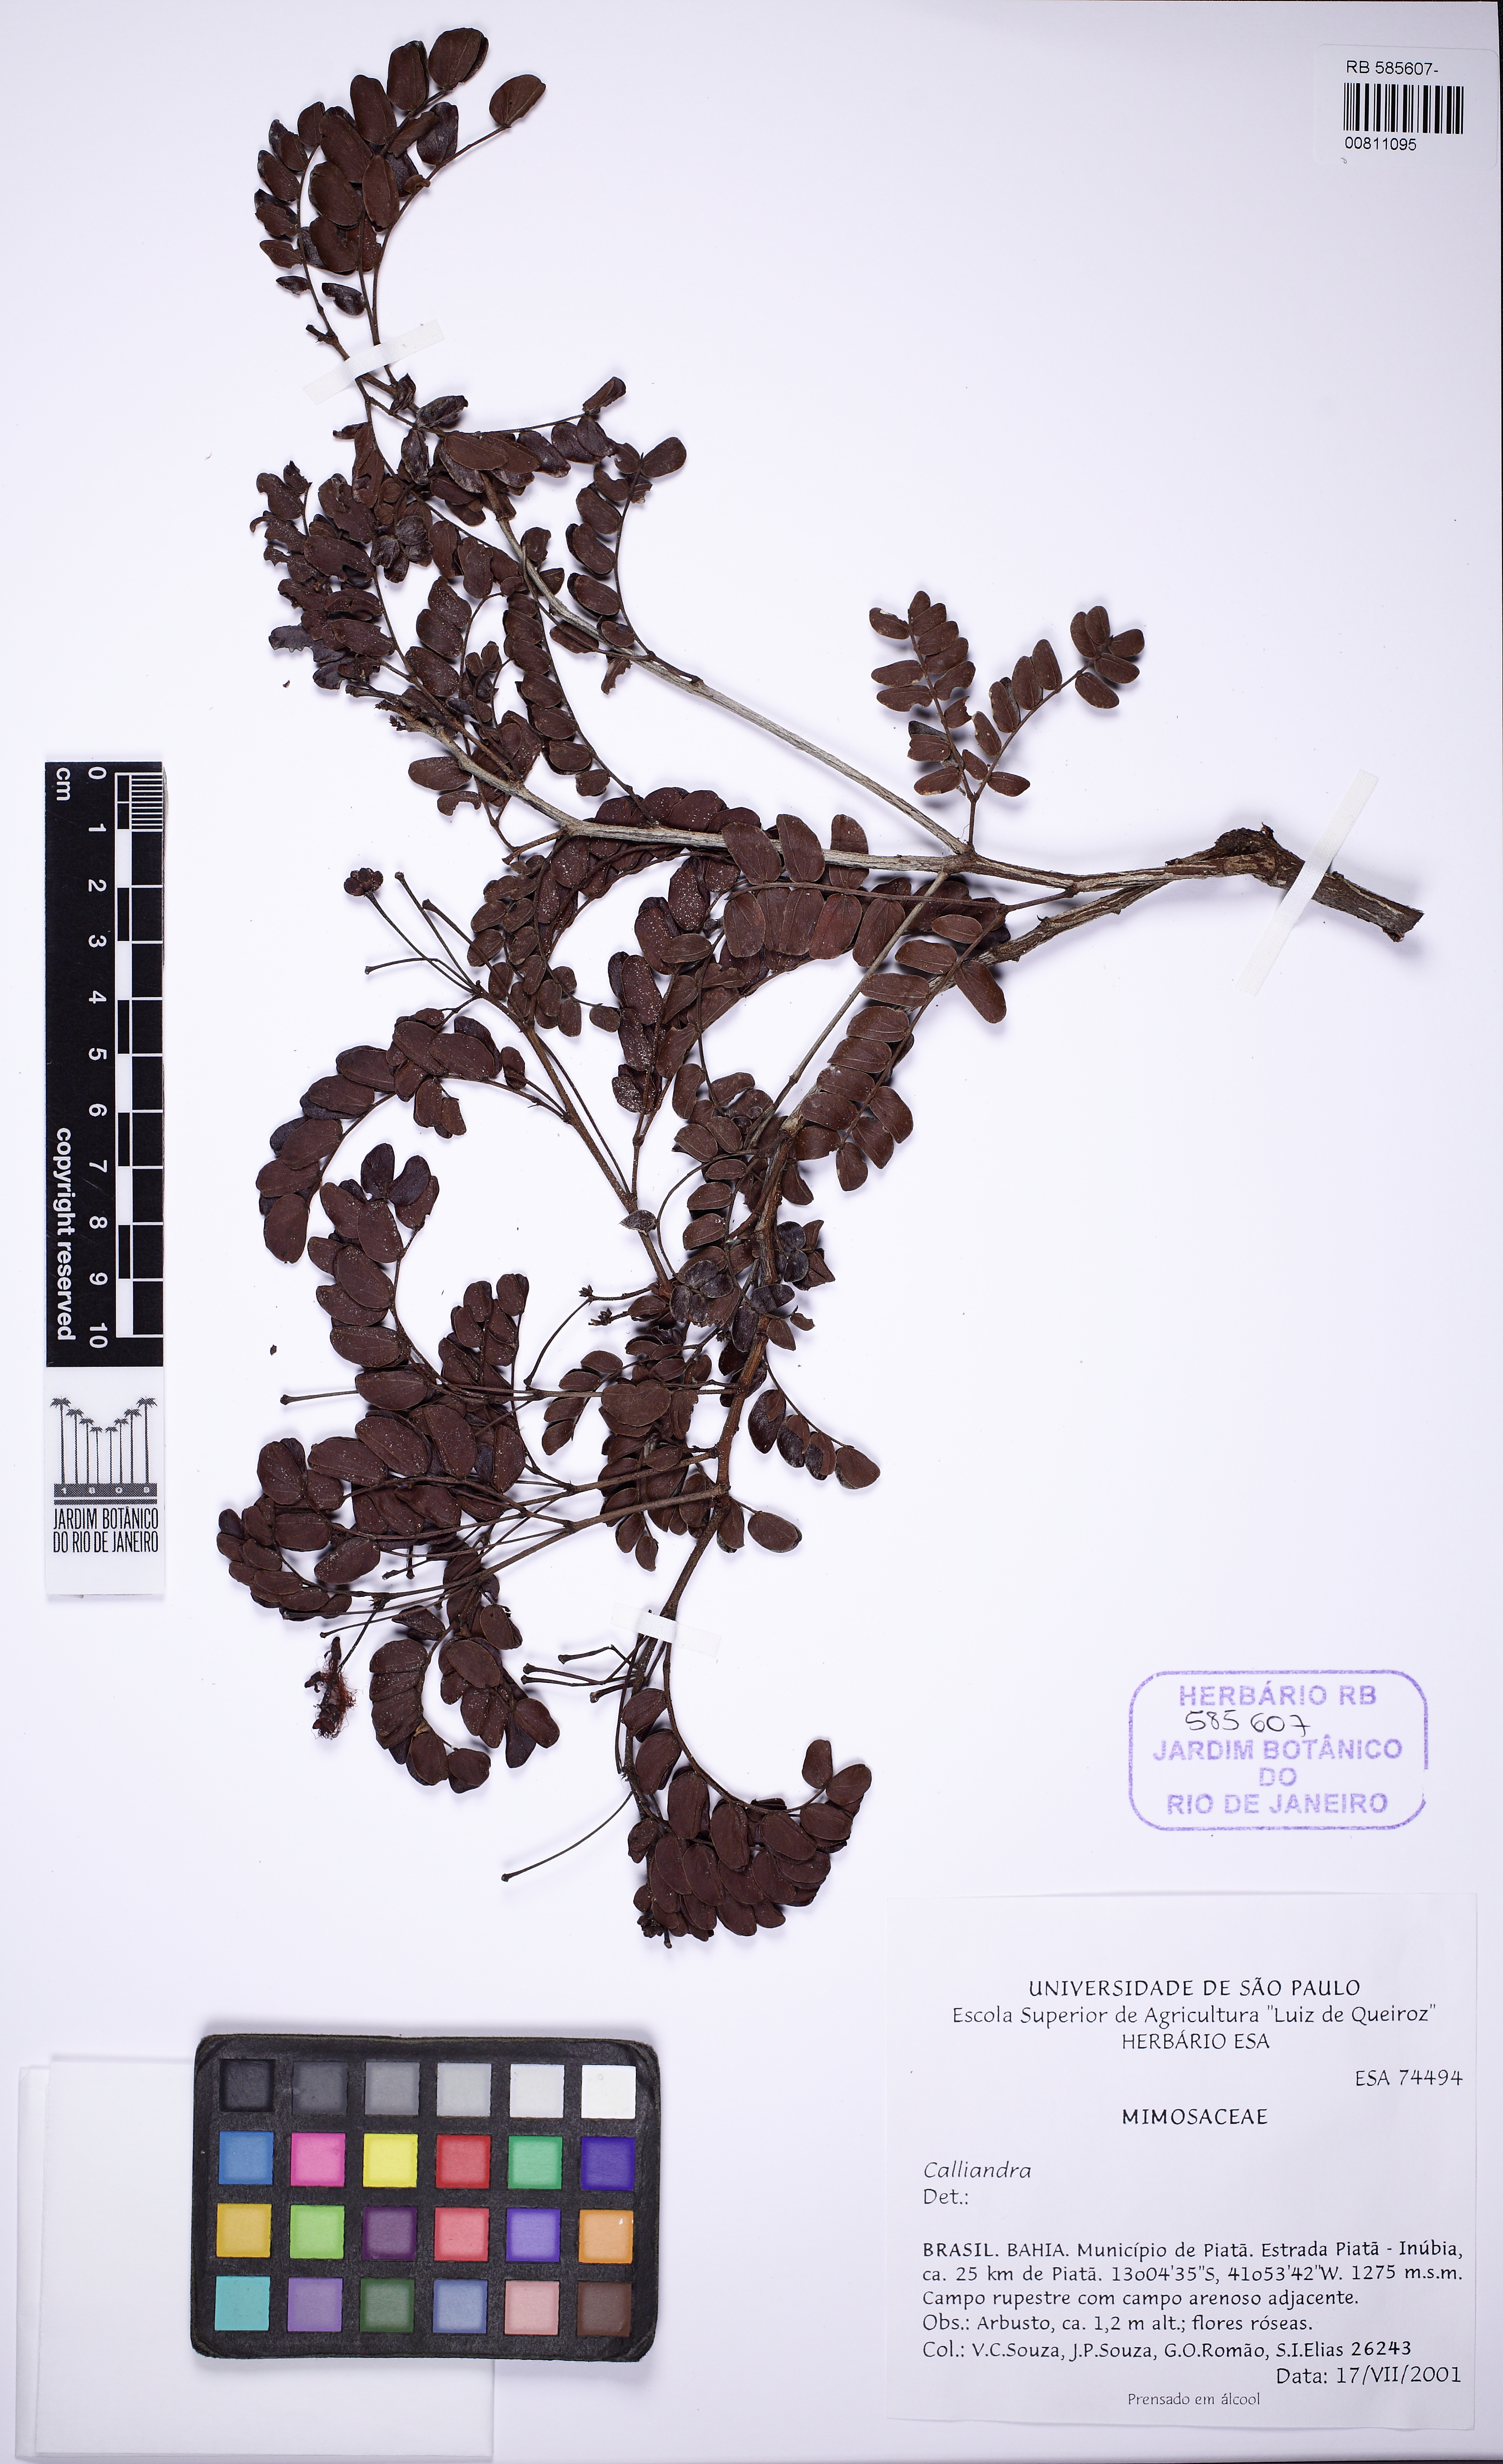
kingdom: Plantae
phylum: Tracheophyta
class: Magnoliopsida
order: Fabales
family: Fabaceae
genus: Calliandra
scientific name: Calliandra
